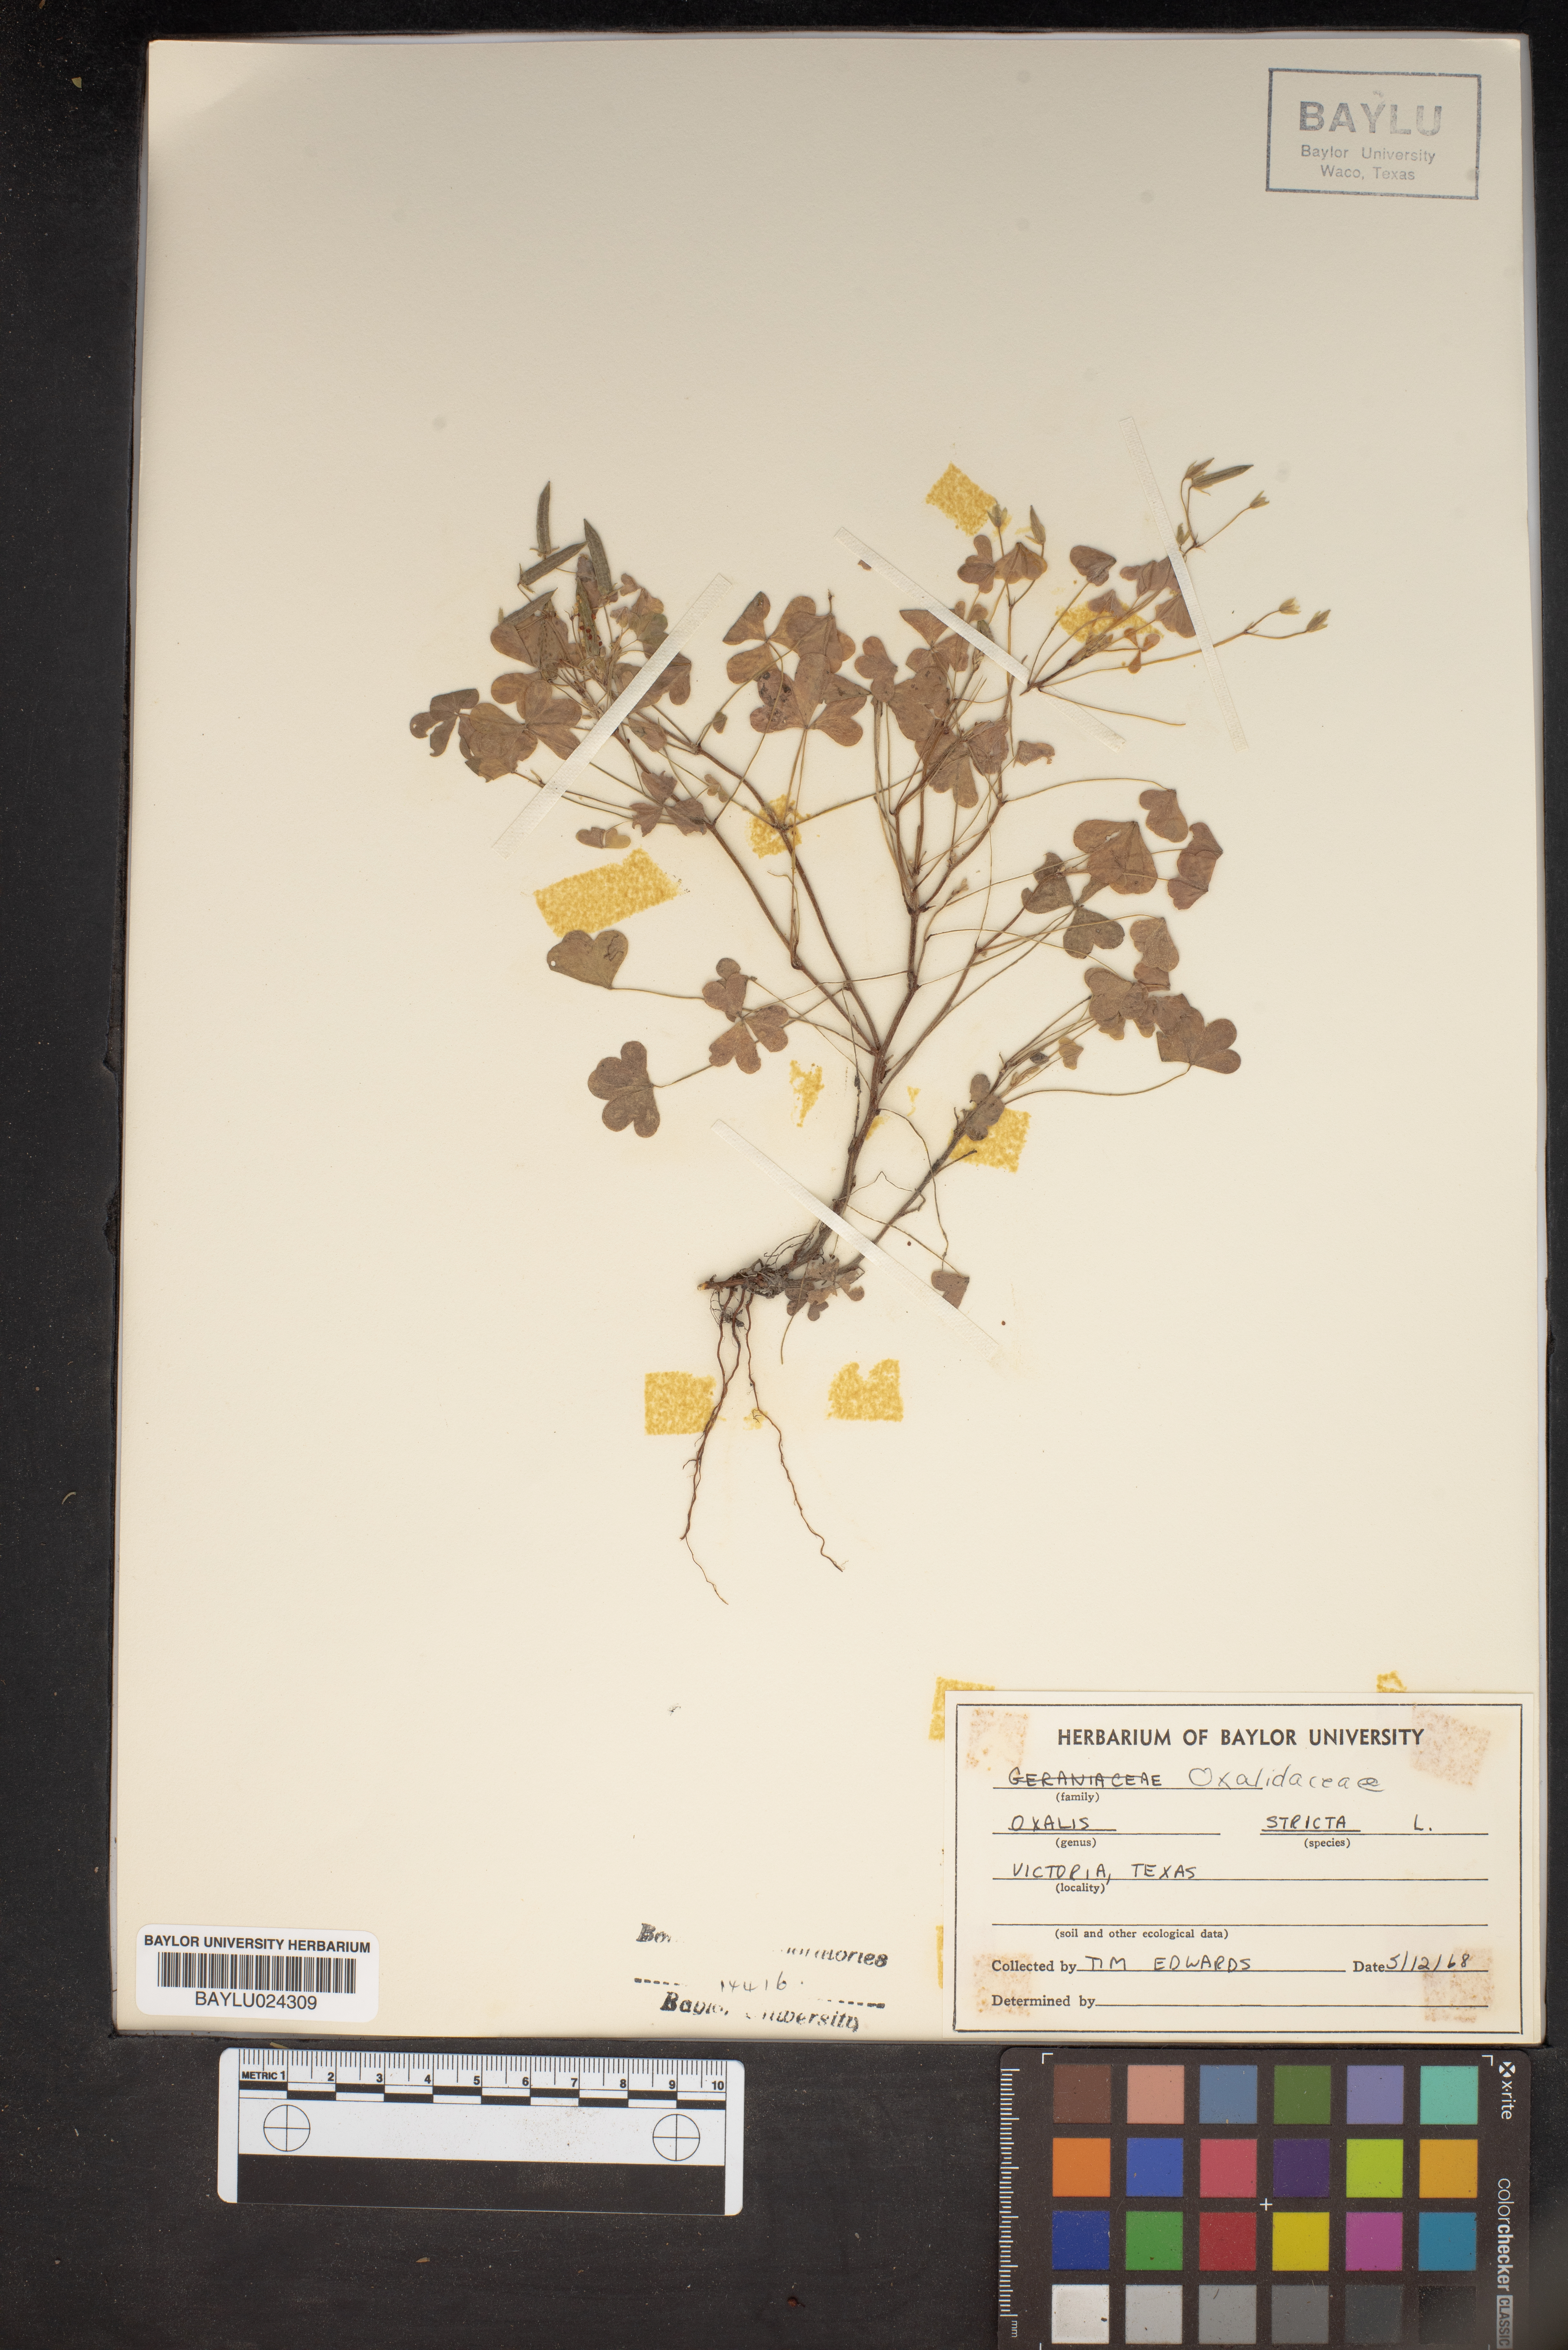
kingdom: Plantae
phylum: Tracheophyta
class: Magnoliopsida
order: Oxalidales
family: Oxalidaceae
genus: Oxalis
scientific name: Oxalis stricta
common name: Upright yellow-sorrel
